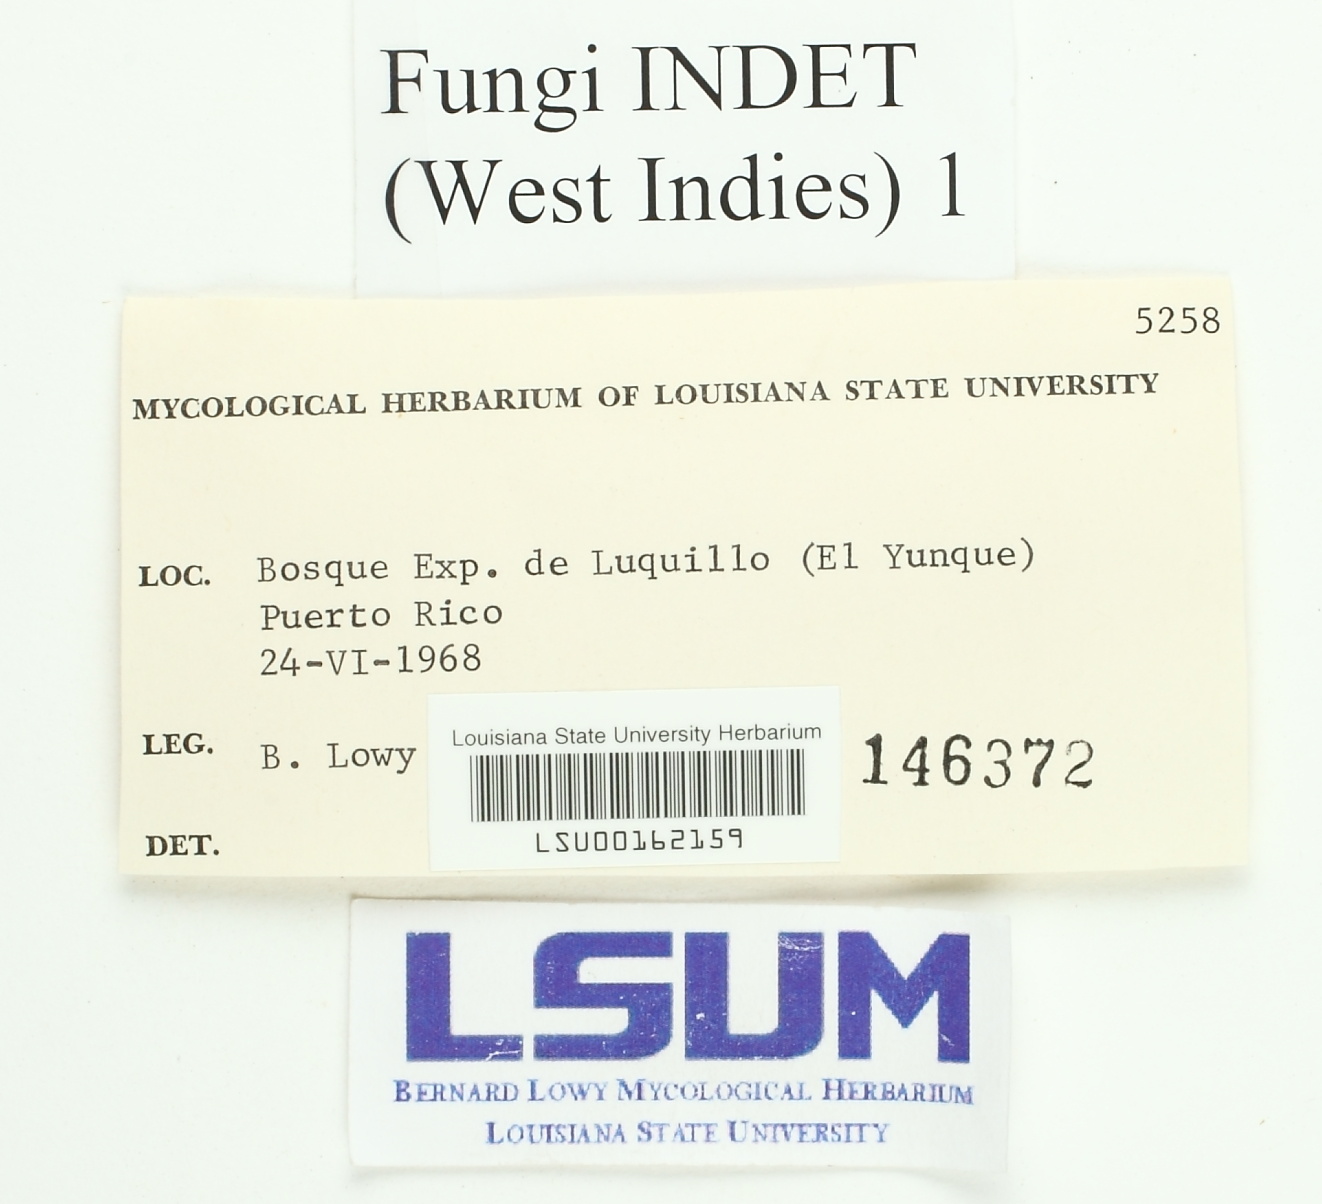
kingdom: Fungi
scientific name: Fungi
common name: Fungi
